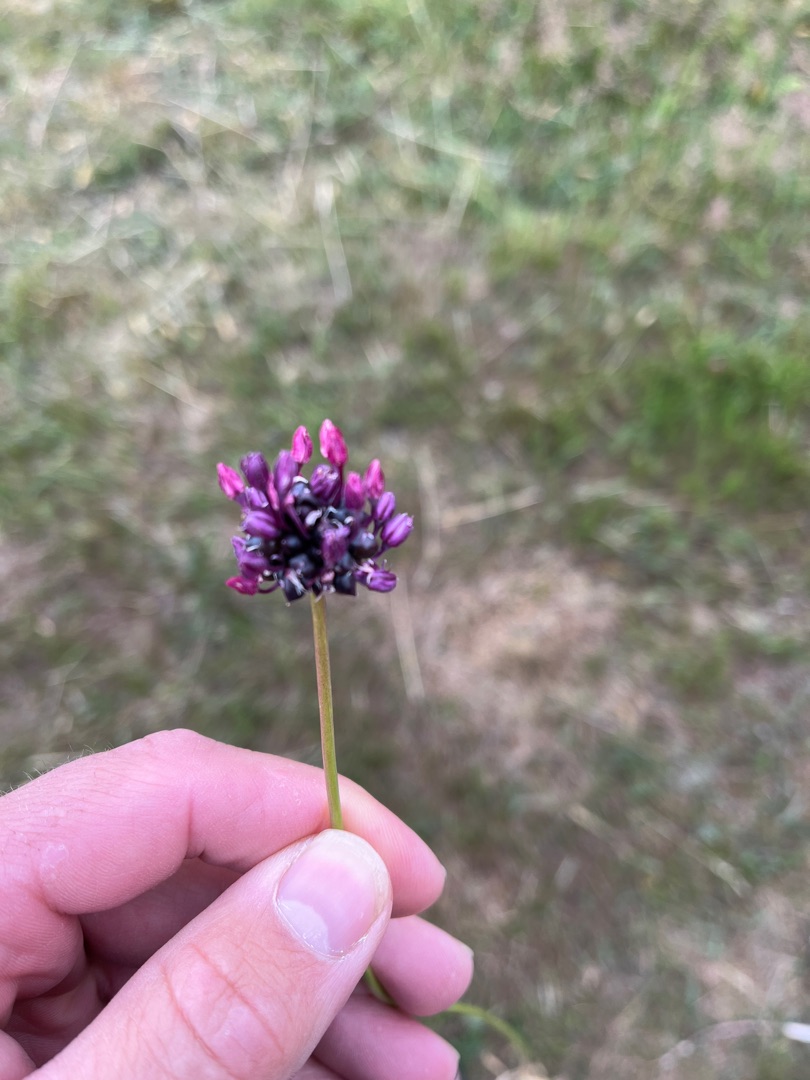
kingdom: Plantae
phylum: Tracheophyta
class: Liliopsida
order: Asparagales
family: Amaryllidaceae
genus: Allium
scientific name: Allium scorodoprasum
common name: Skov-løg
